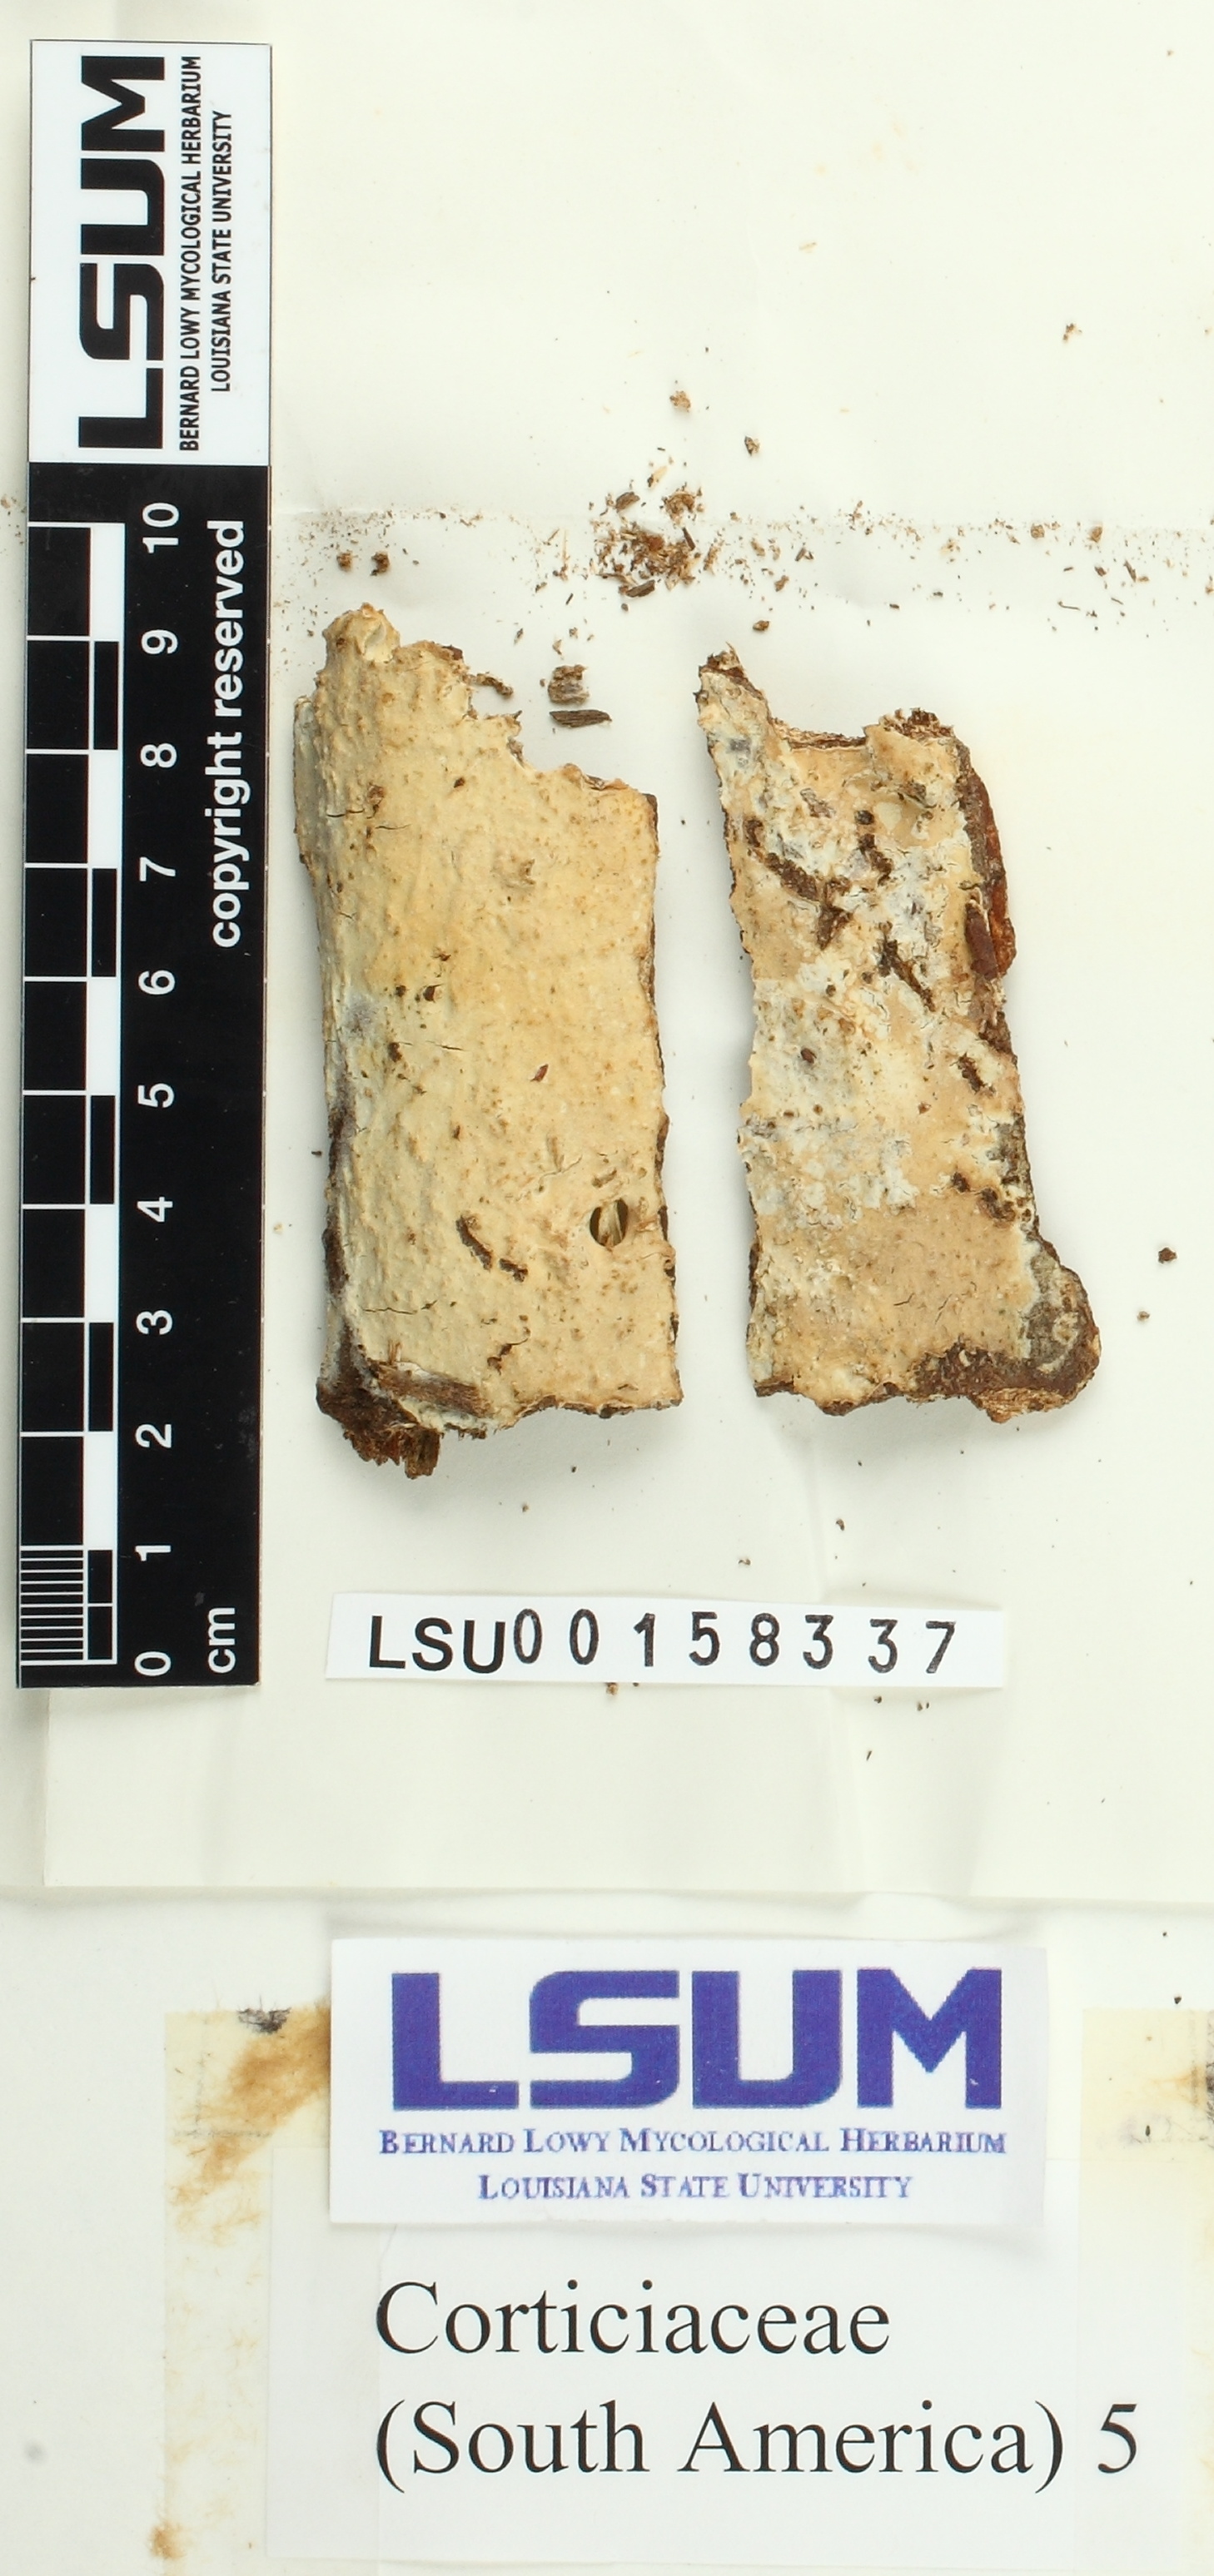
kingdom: Fungi
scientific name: Fungi
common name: Fungi
